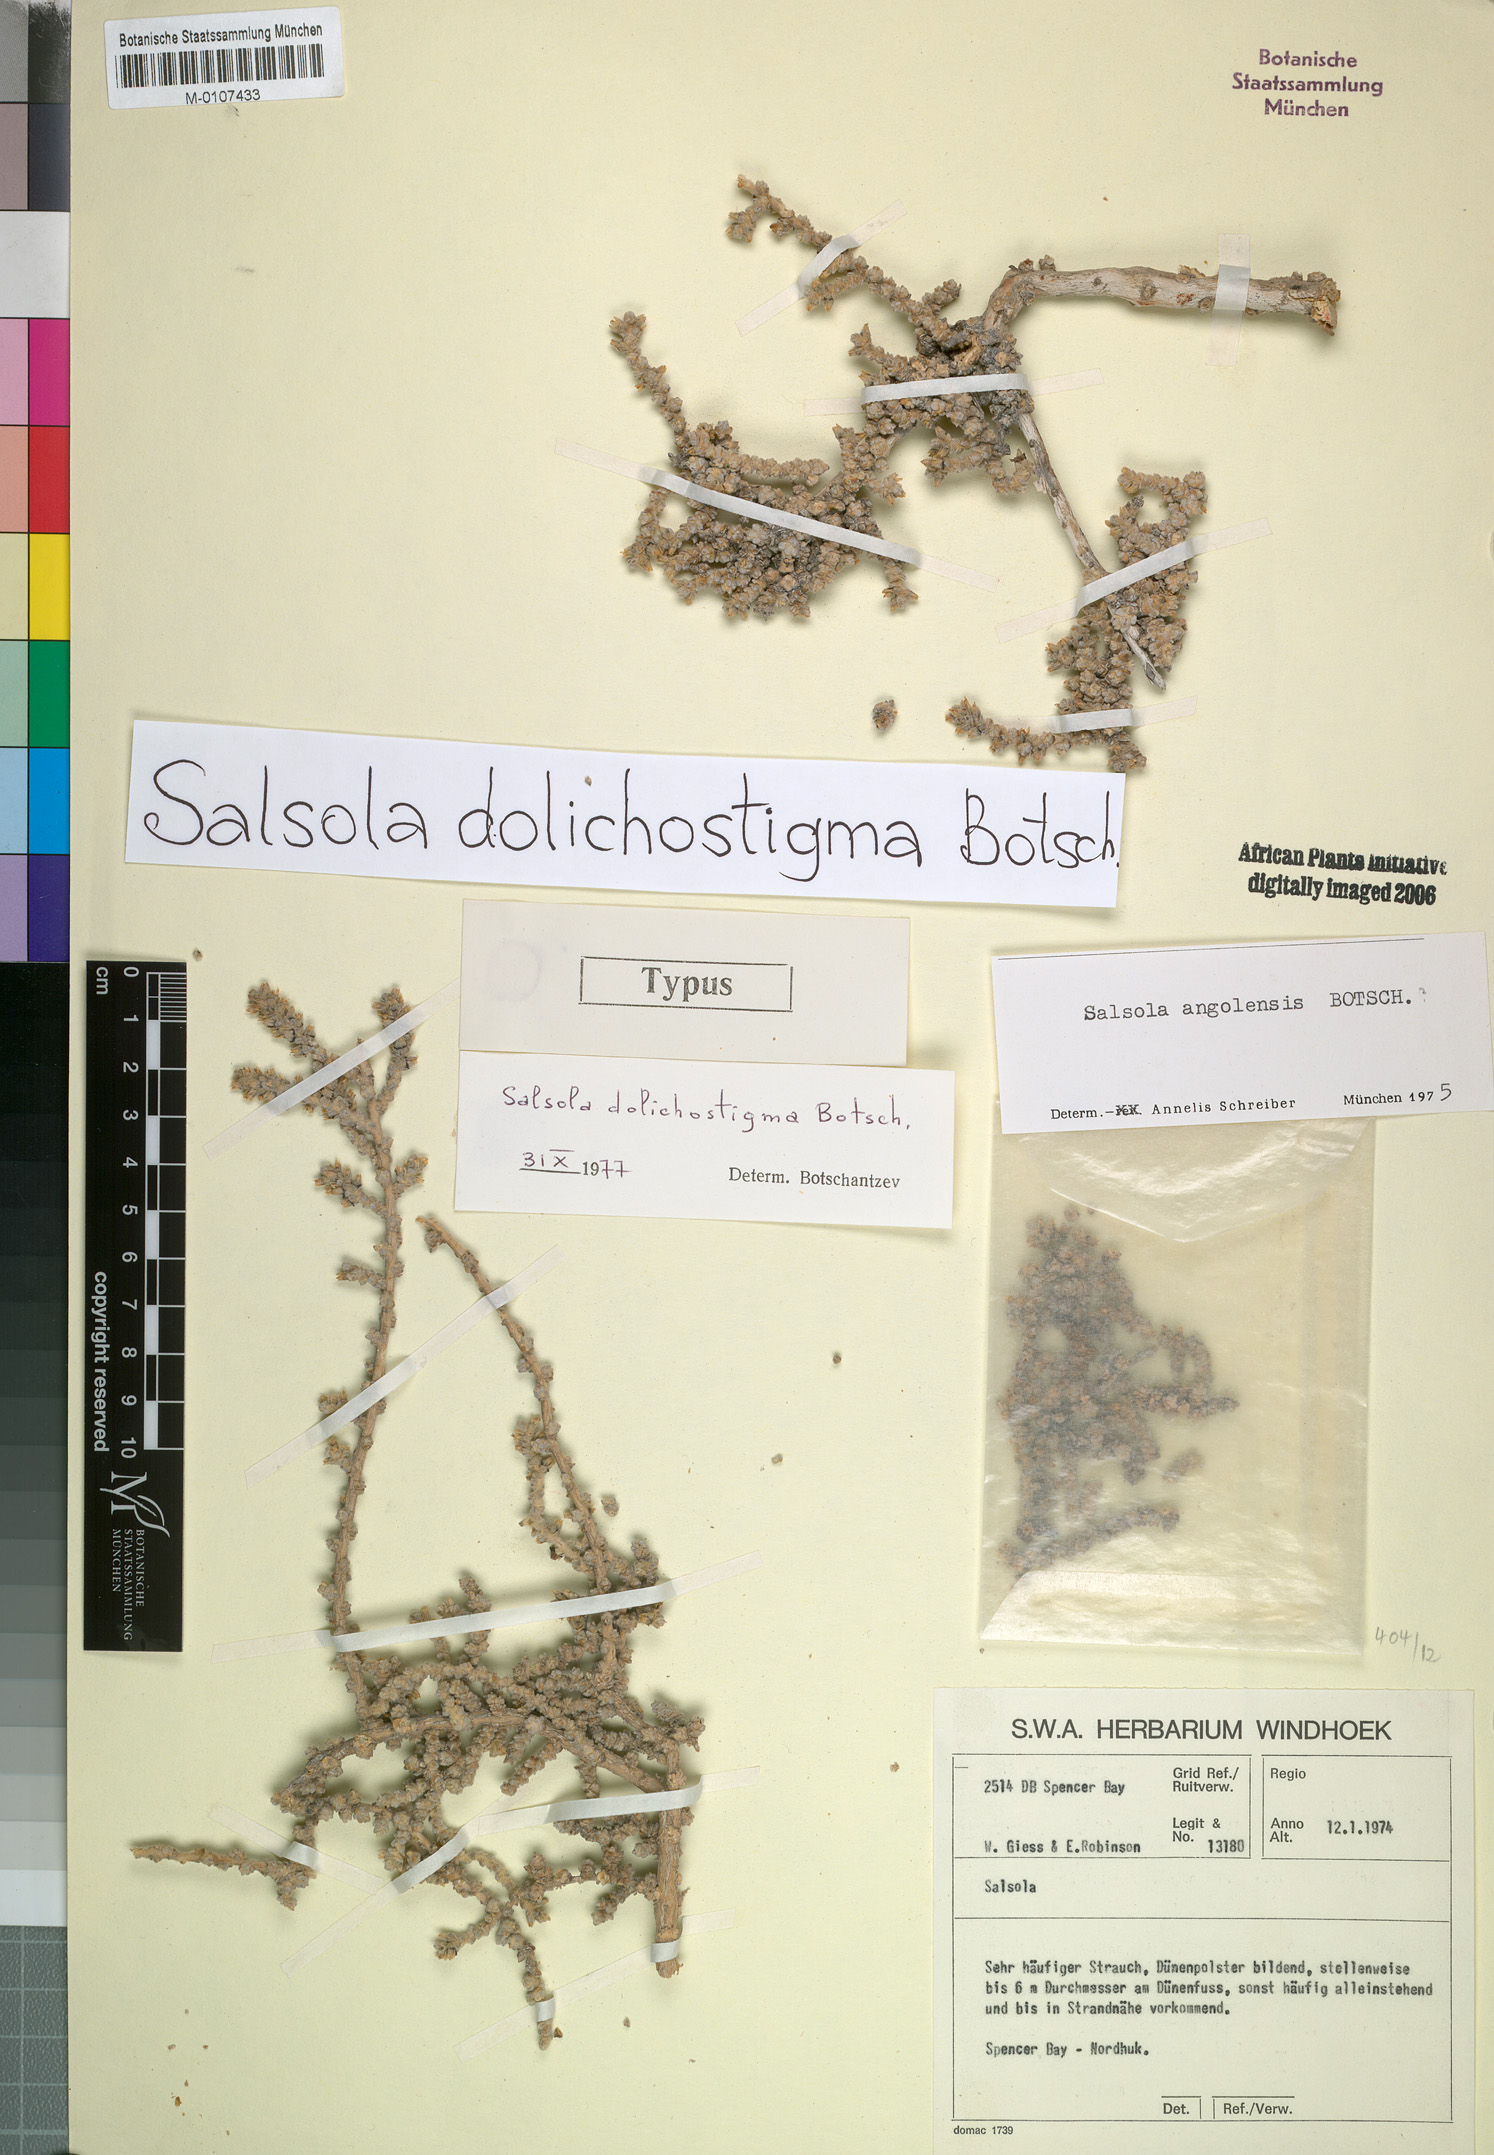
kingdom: Plantae
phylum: Tracheophyta
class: Magnoliopsida
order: Caryophyllales
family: Amaranthaceae
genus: Caroxylon
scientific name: Caroxylon dolichostigmum
